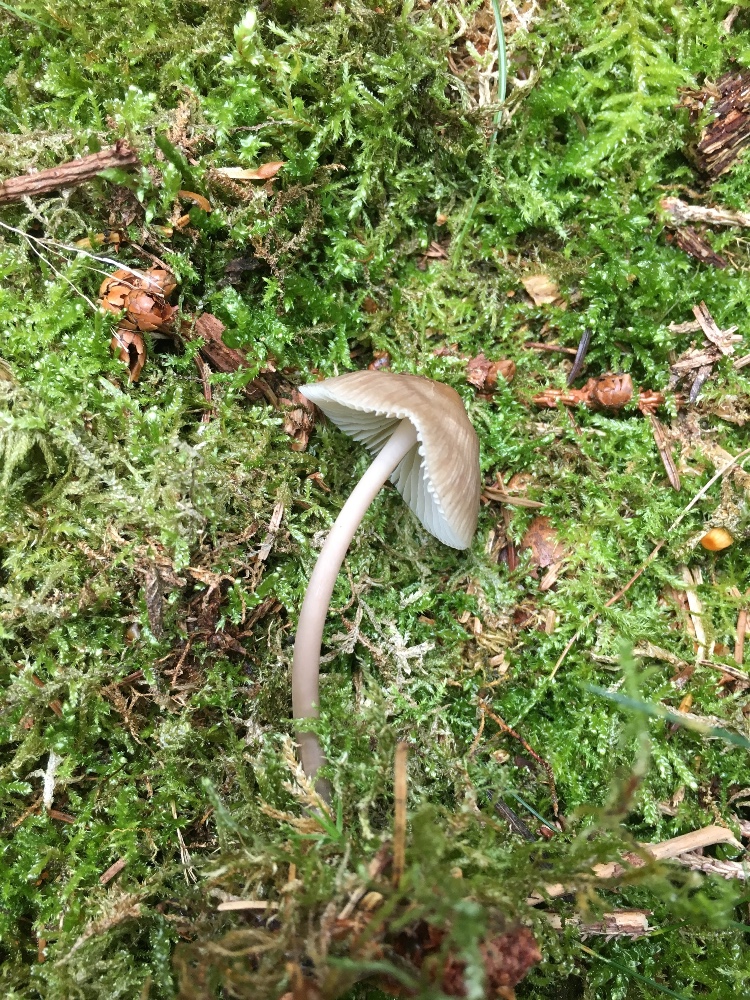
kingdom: Fungi
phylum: Basidiomycota
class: Agaricomycetes
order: Agaricales
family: Mycenaceae
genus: Mycena
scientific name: Mycena galericulata
